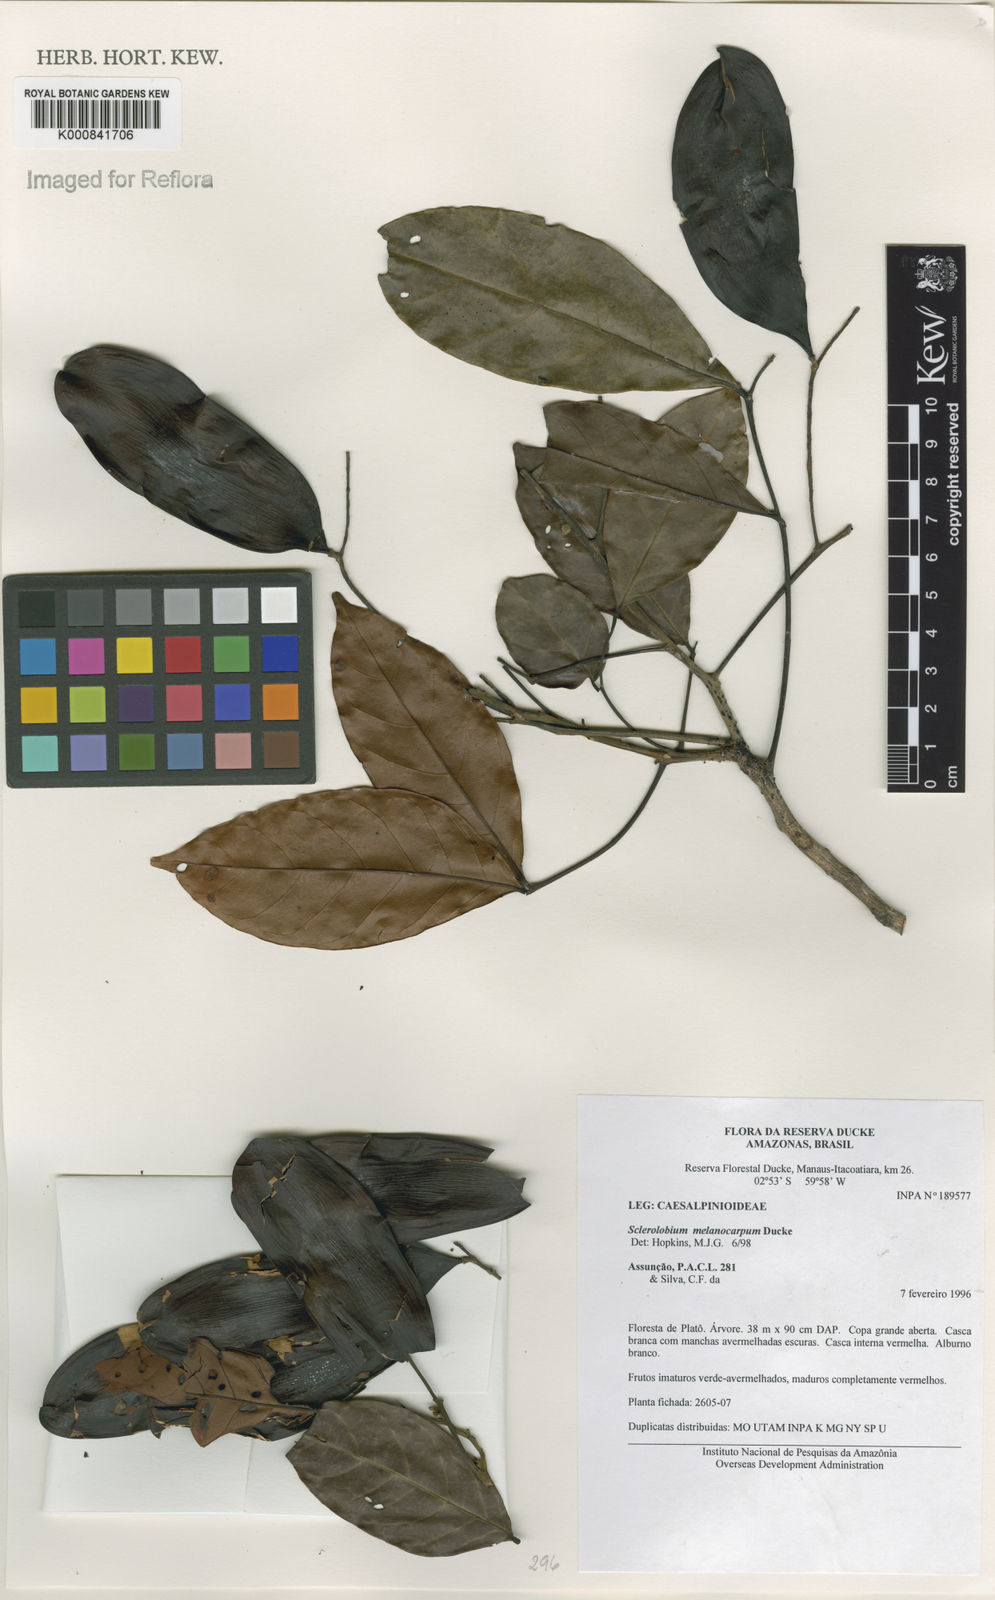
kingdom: Plantae
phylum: Tracheophyta
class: Magnoliopsida
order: Fabales
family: Fabaceae
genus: Tachigali
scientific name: Tachigali melanocarpa
